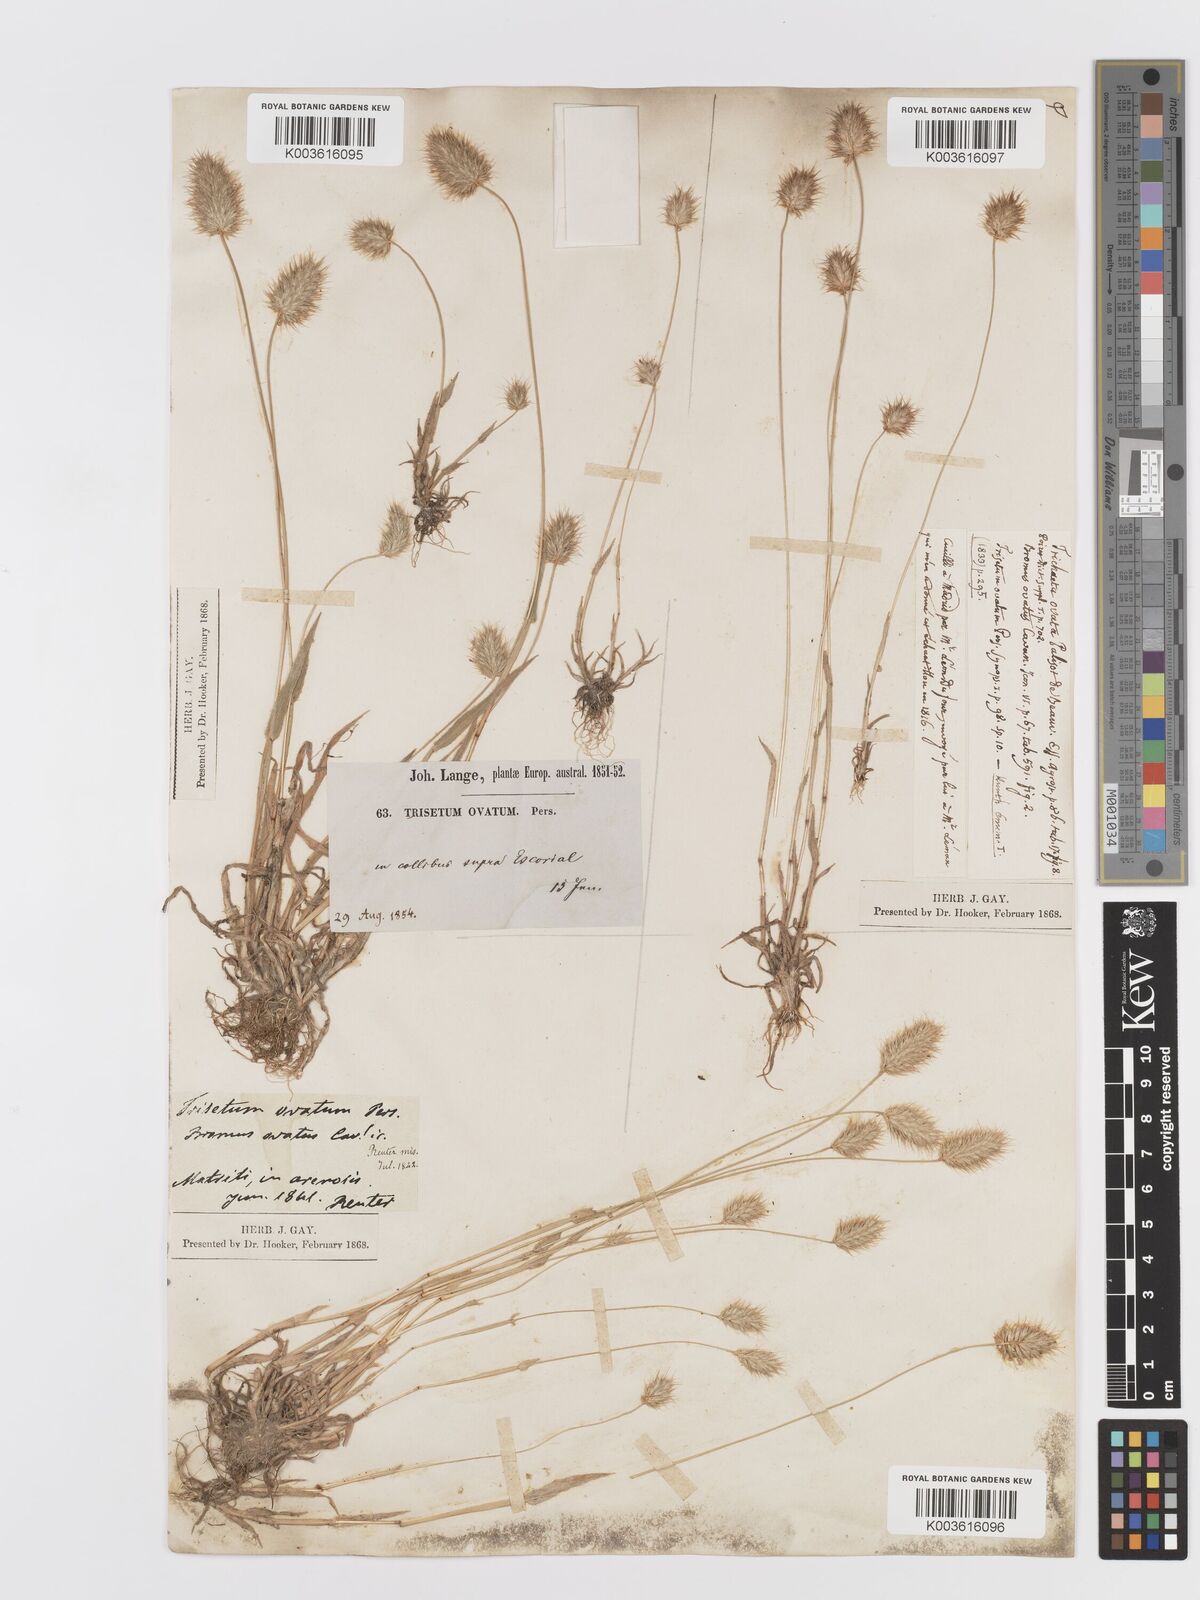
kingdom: Plantae
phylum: Tracheophyta
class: Liliopsida
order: Poales
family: Poaceae
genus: Trisetaria
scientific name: Trisetaria ovata
